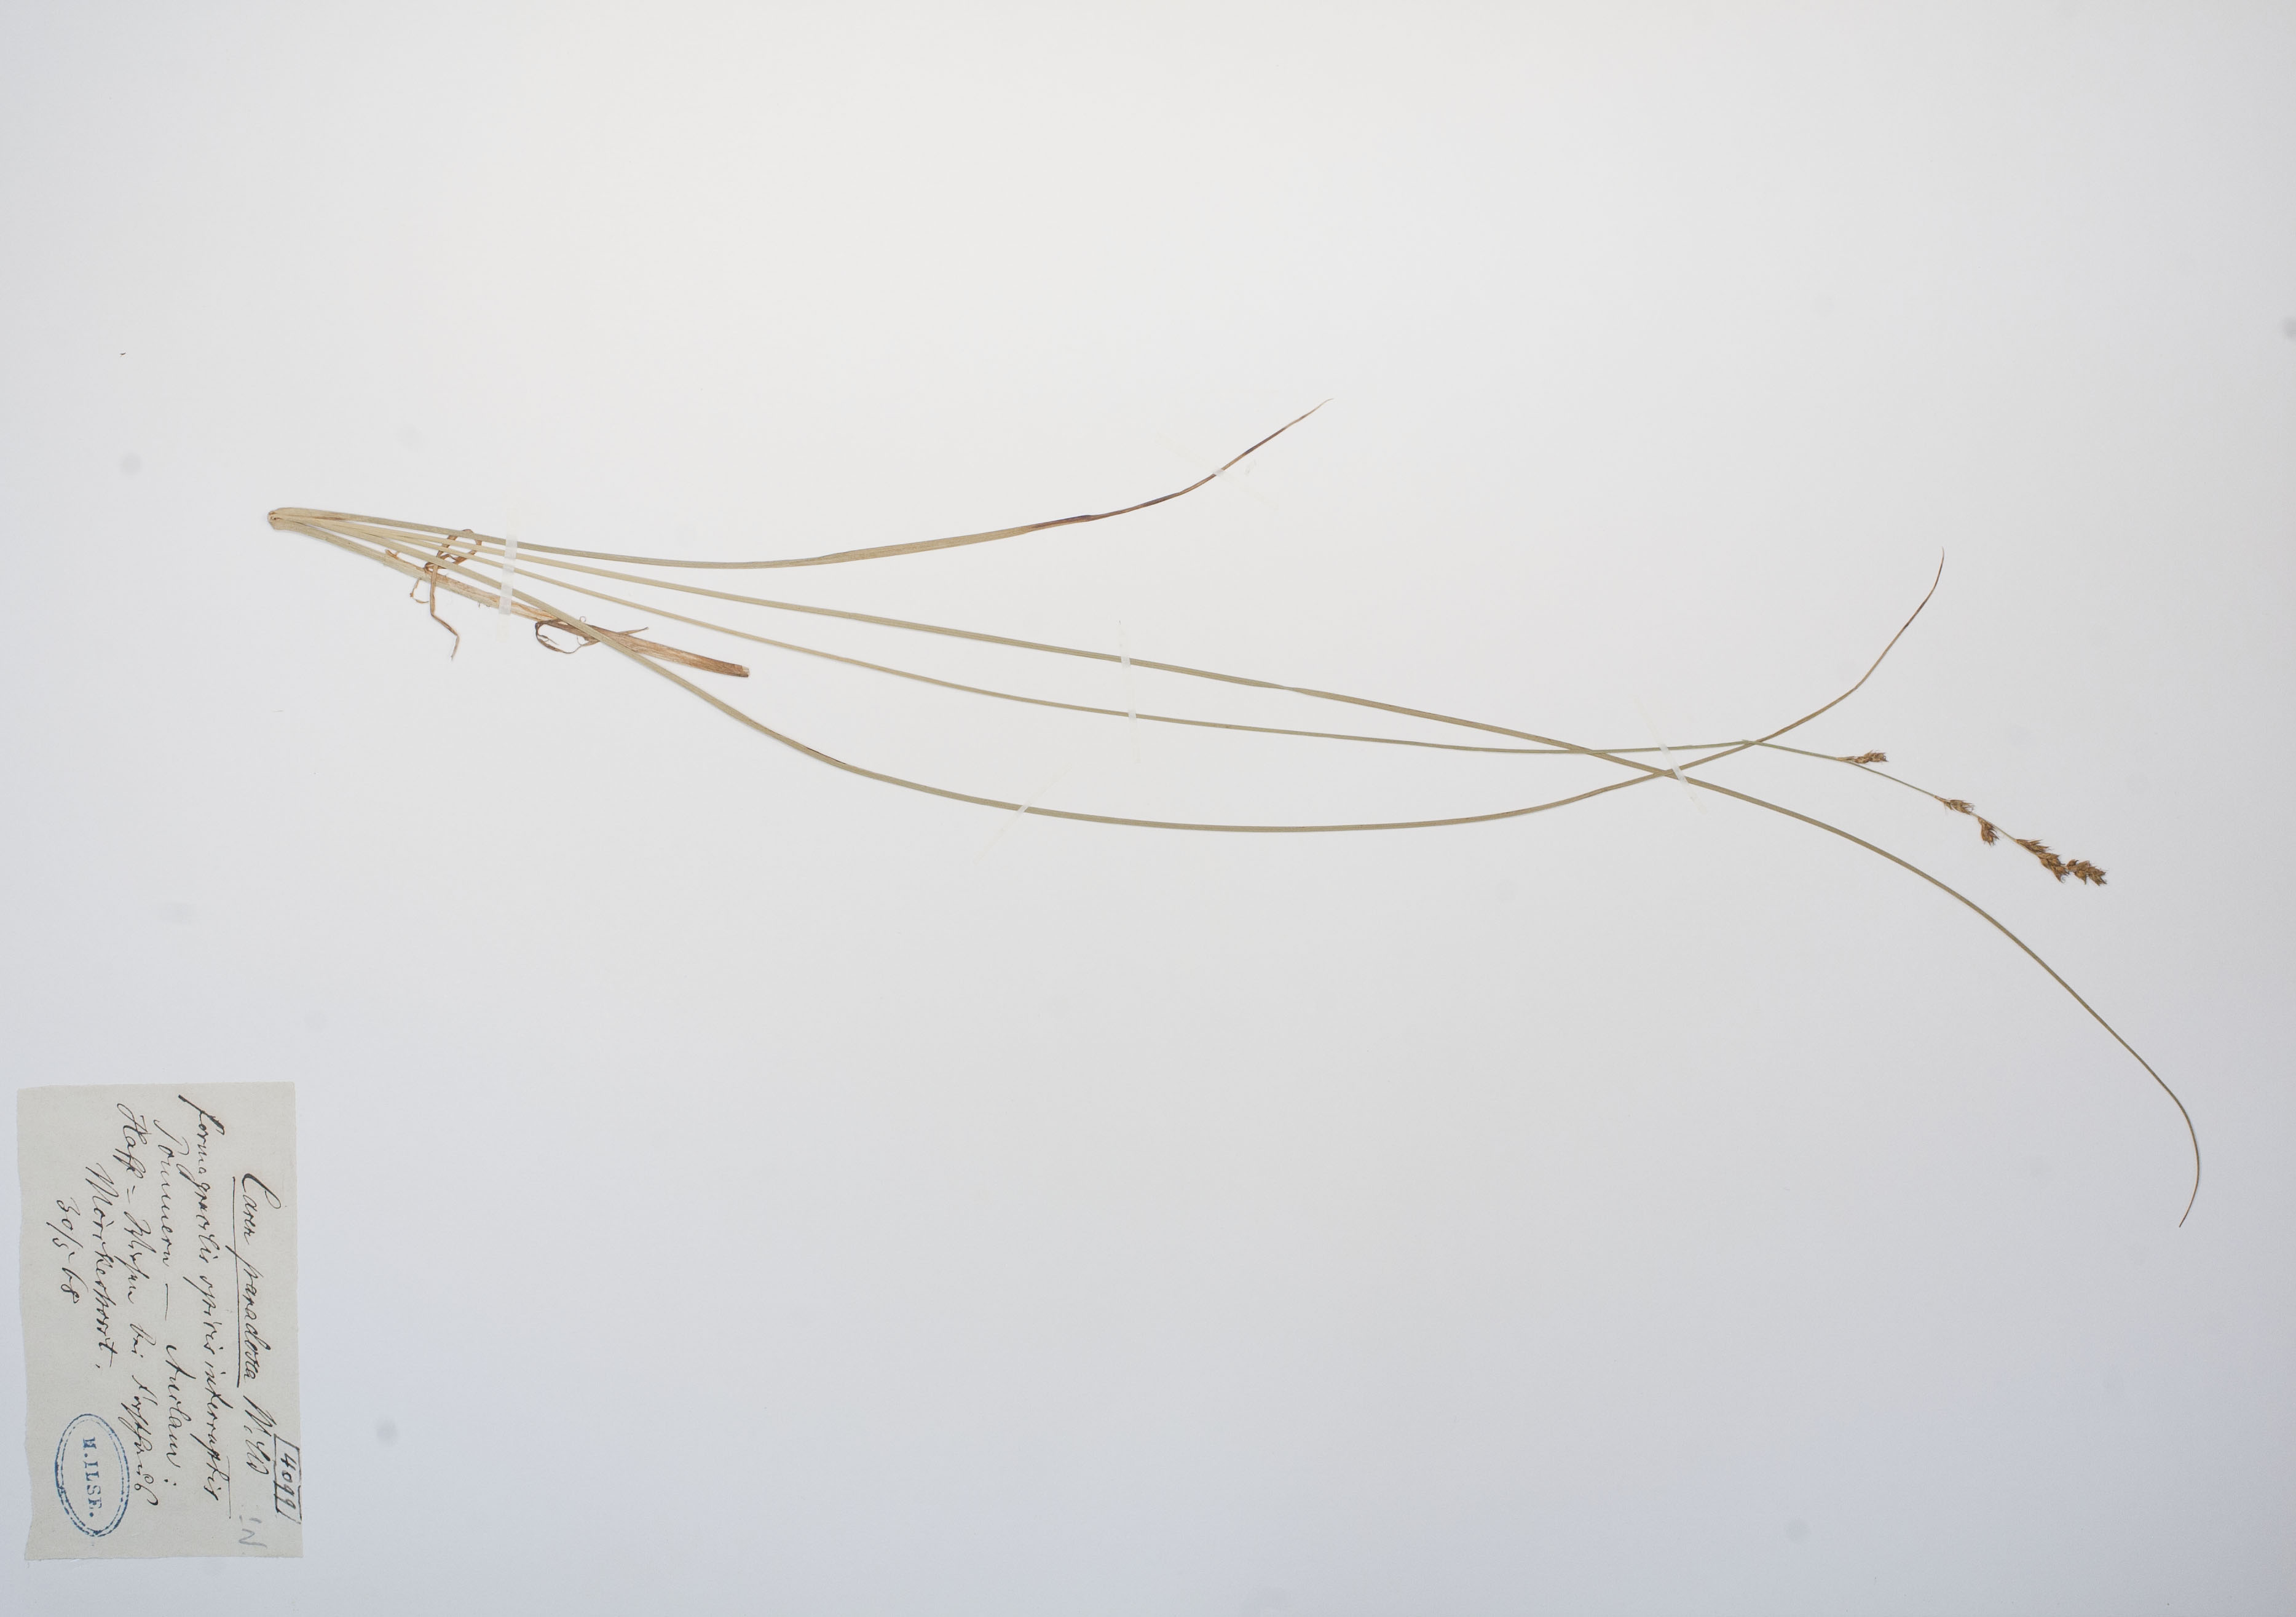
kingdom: Plantae
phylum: Tracheophyta
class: Liliopsida
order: Poales
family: Cyperaceae
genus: Carex
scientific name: Carex appropinquata
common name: Fibrous tussock-sedge
